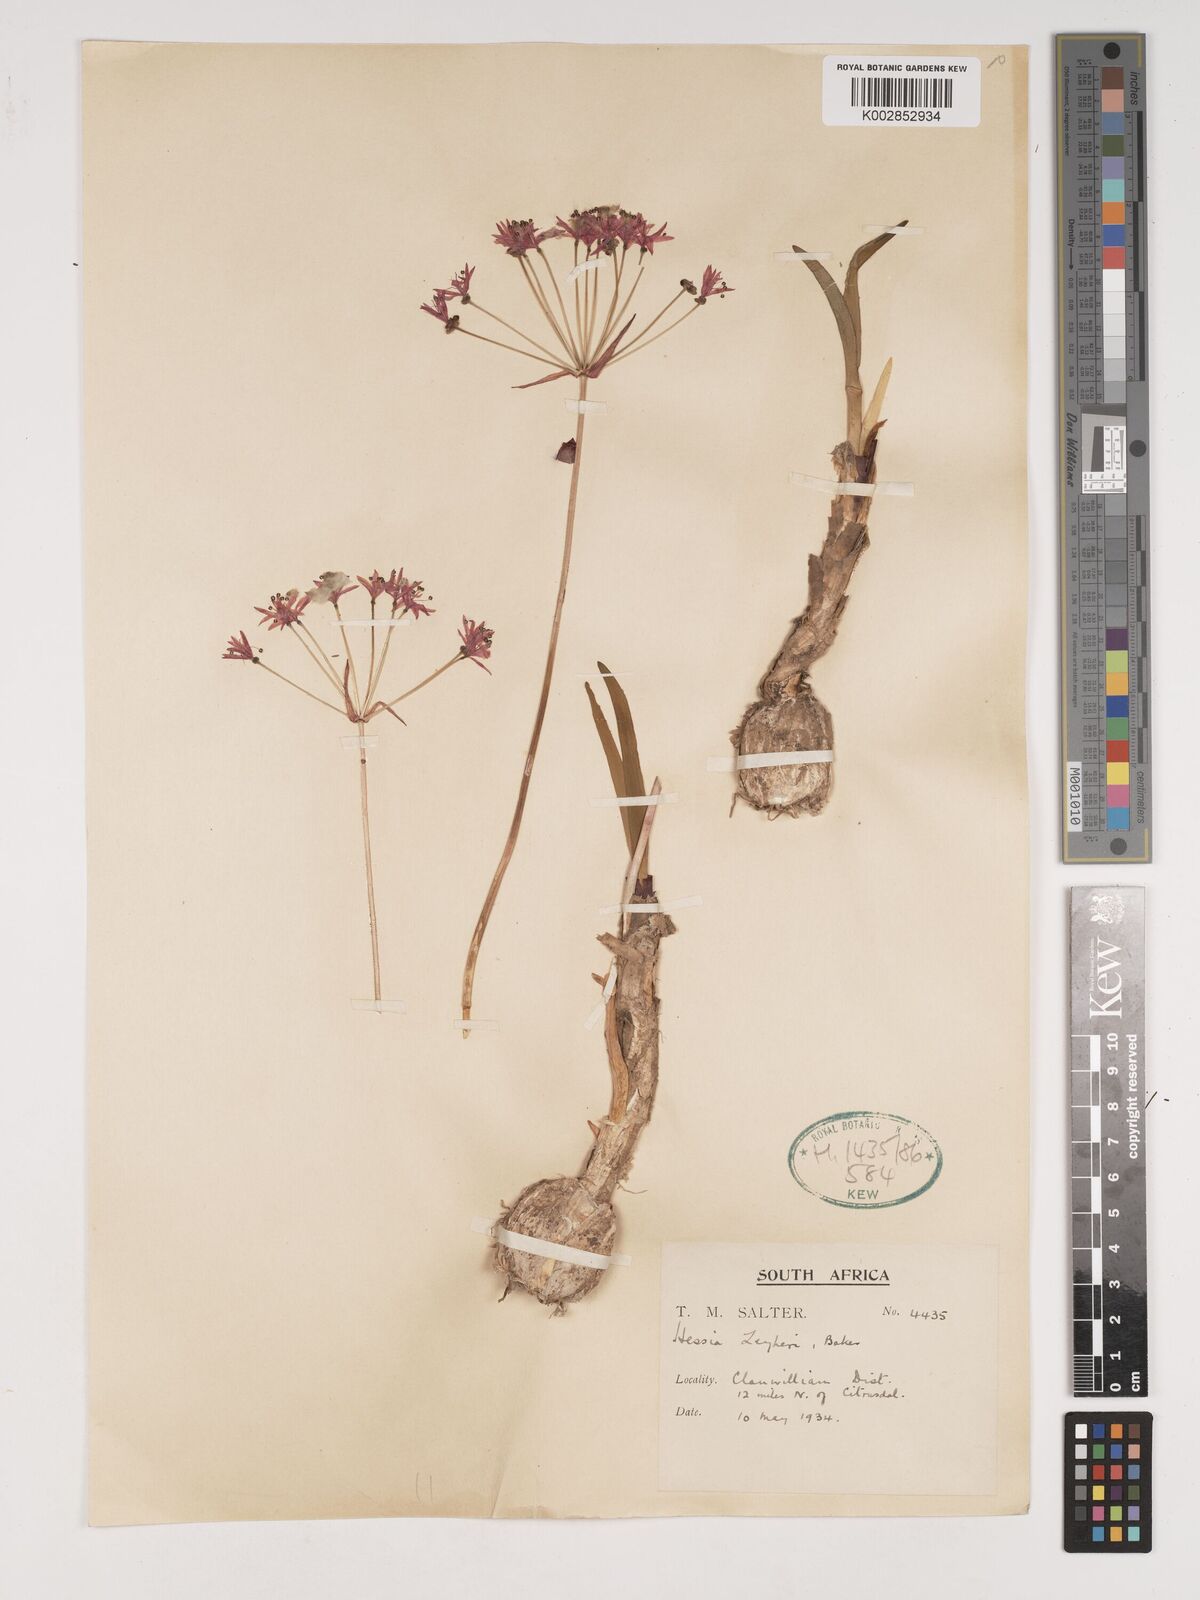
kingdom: Plantae
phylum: Tracheophyta
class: Liliopsida
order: Asparagales
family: Amaryllidaceae
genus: Hessea
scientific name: Hessea breviflora
